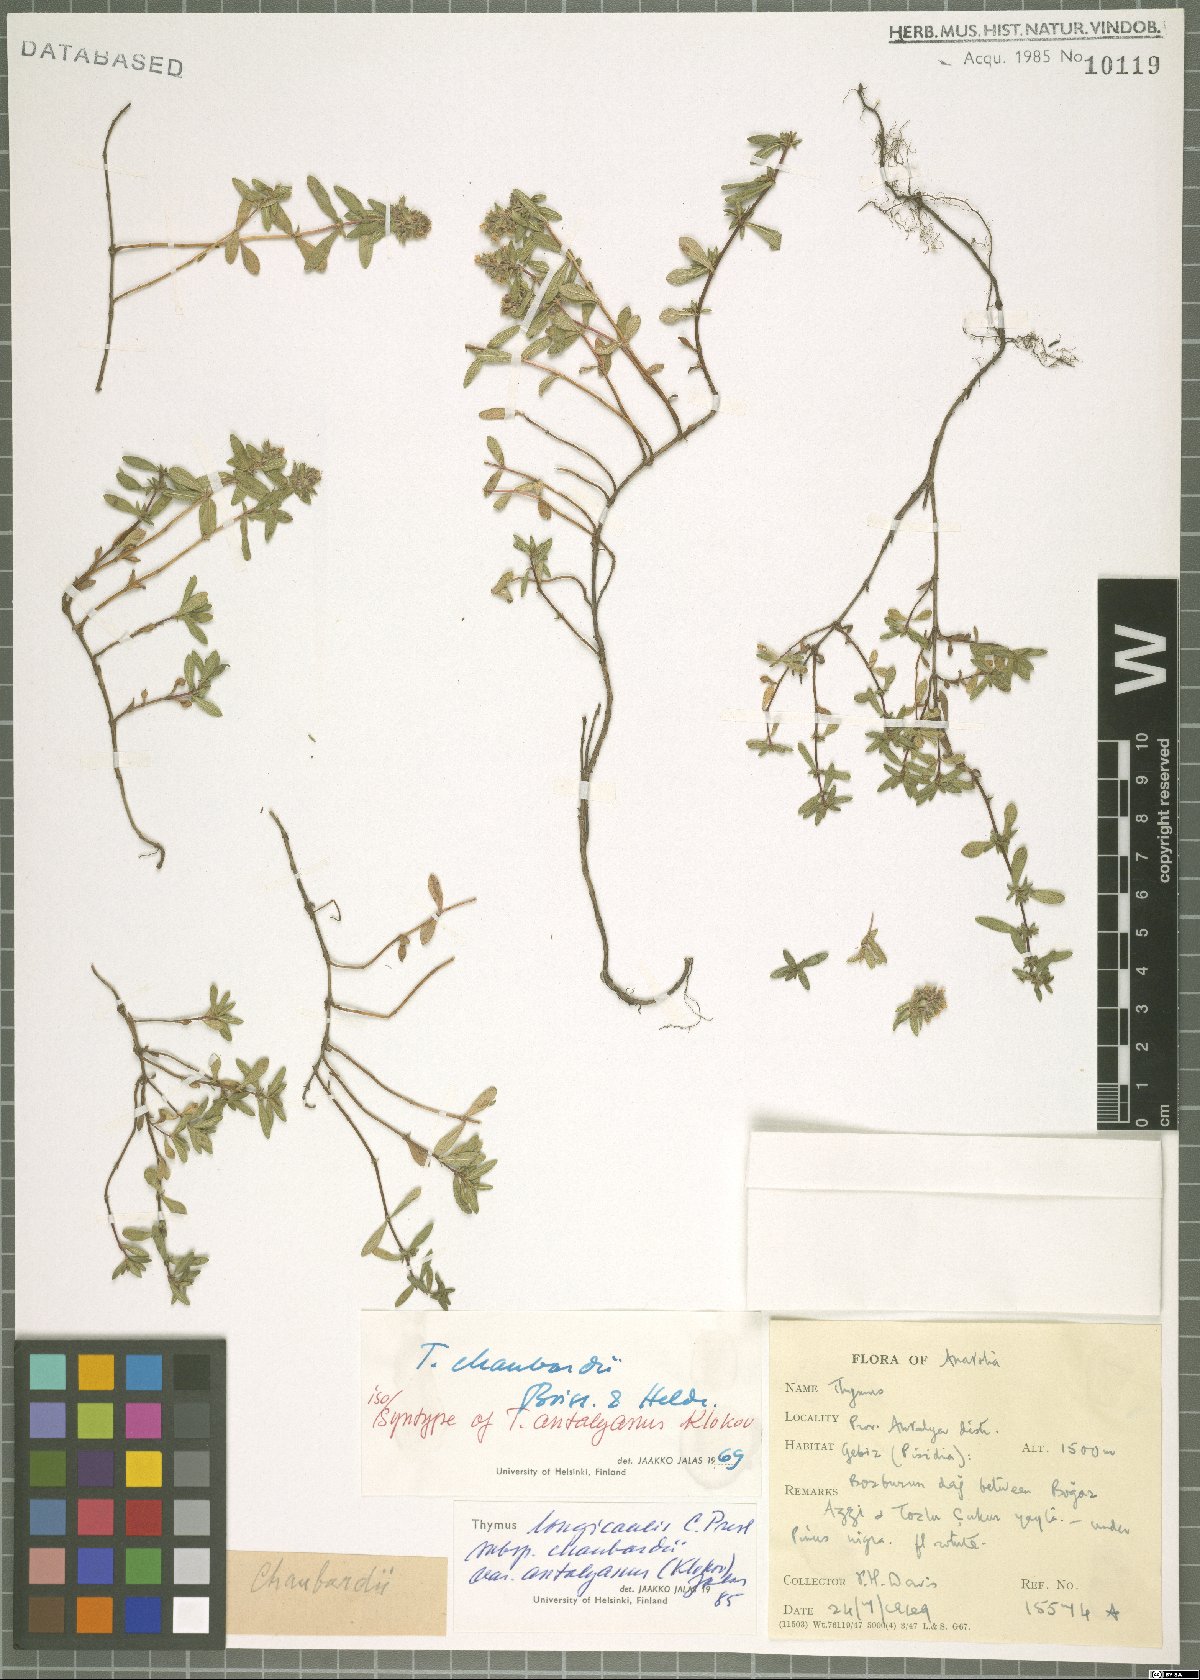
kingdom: Plantae
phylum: Tracheophyta
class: Magnoliopsida
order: Lamiales
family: Lamiaceae
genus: Thymus
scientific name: Thymus longicaulis
